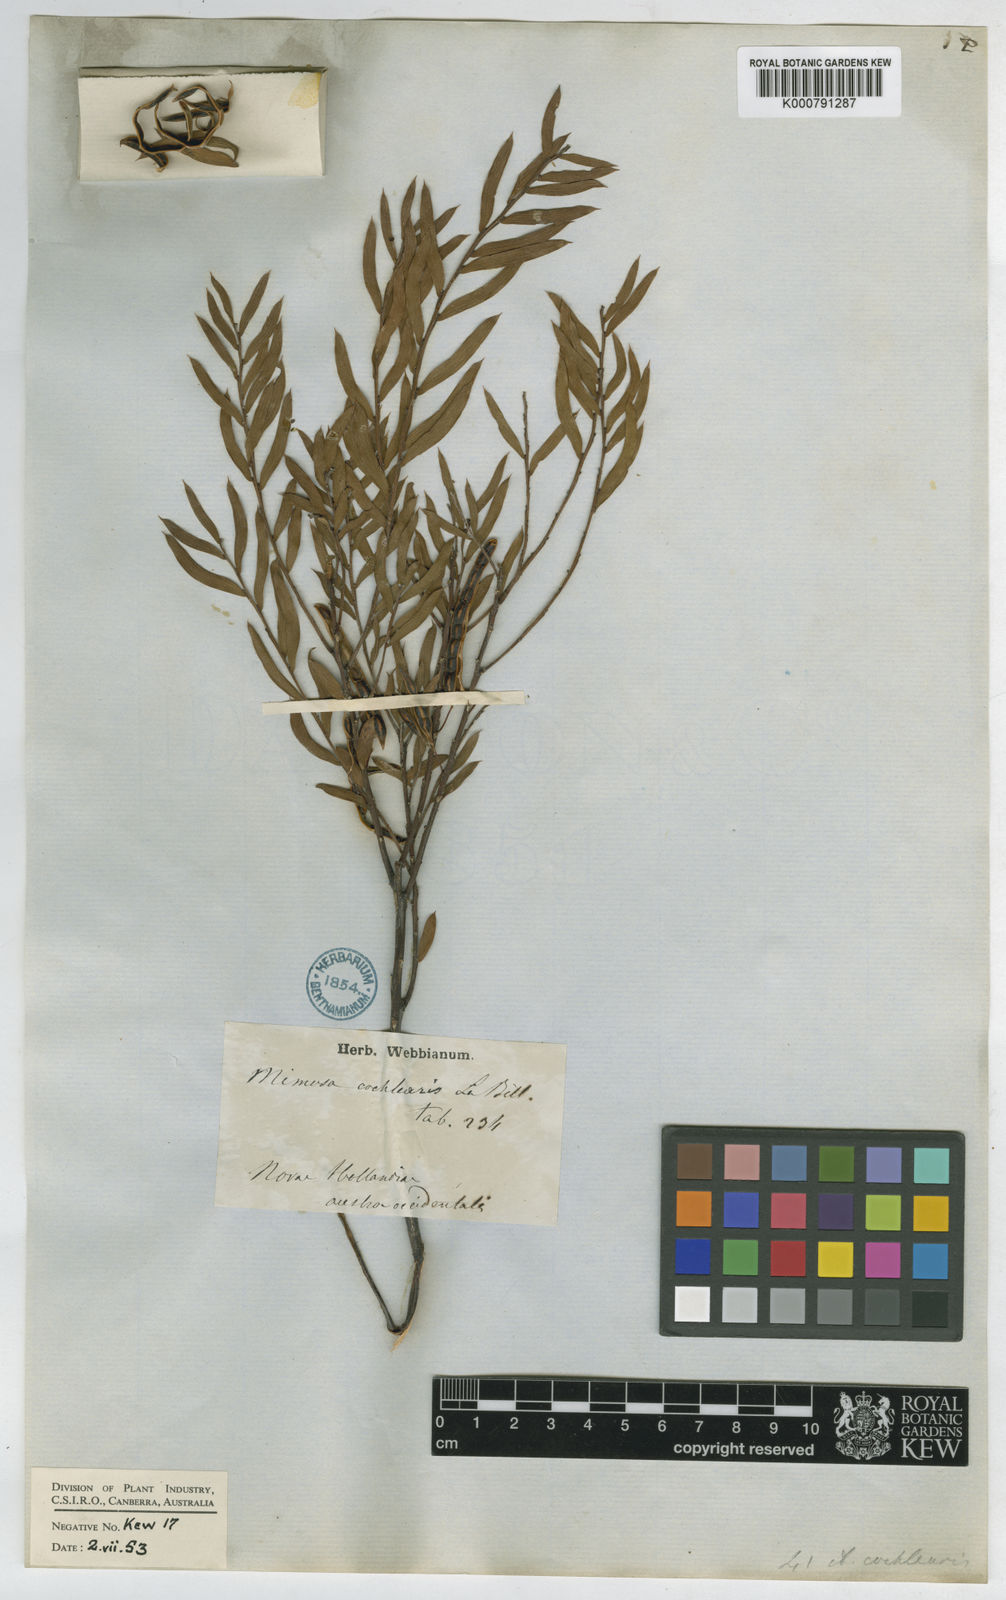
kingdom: Plantae
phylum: Tracheophyta
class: Magnoliopsida
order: Fabales
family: Fabaceae
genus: Acacia
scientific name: Acacia cochlearis
